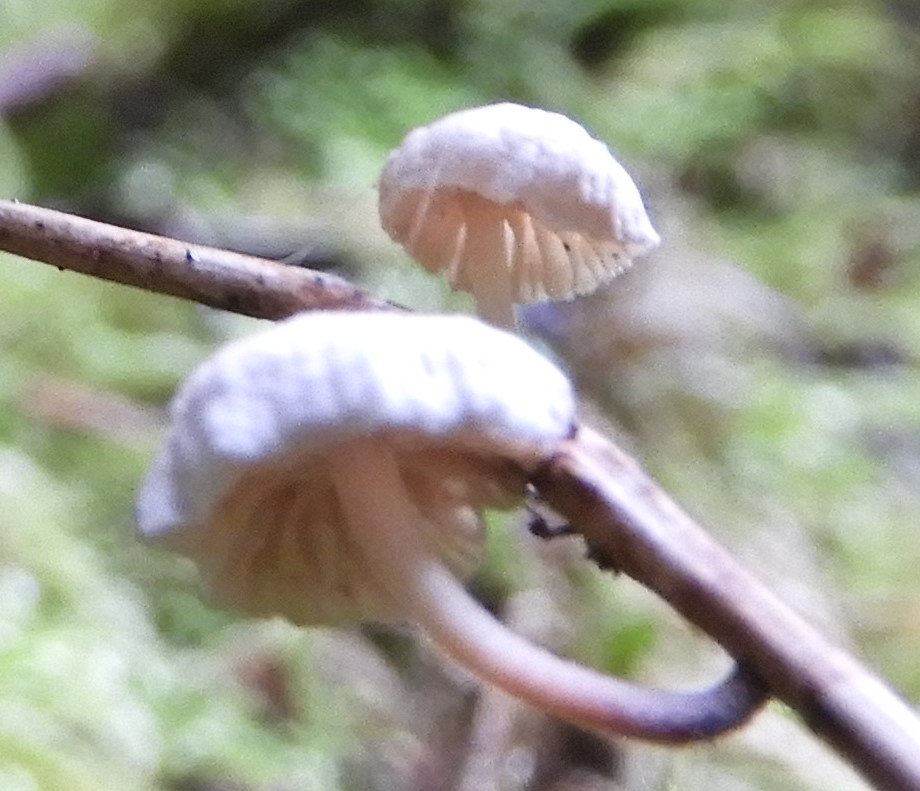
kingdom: Fungi
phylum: Basidiomycota
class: Agaricomycetes
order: Agaricales
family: Omphalotaceae
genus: Collybiopsis
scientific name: Collybiopsis ramealis
